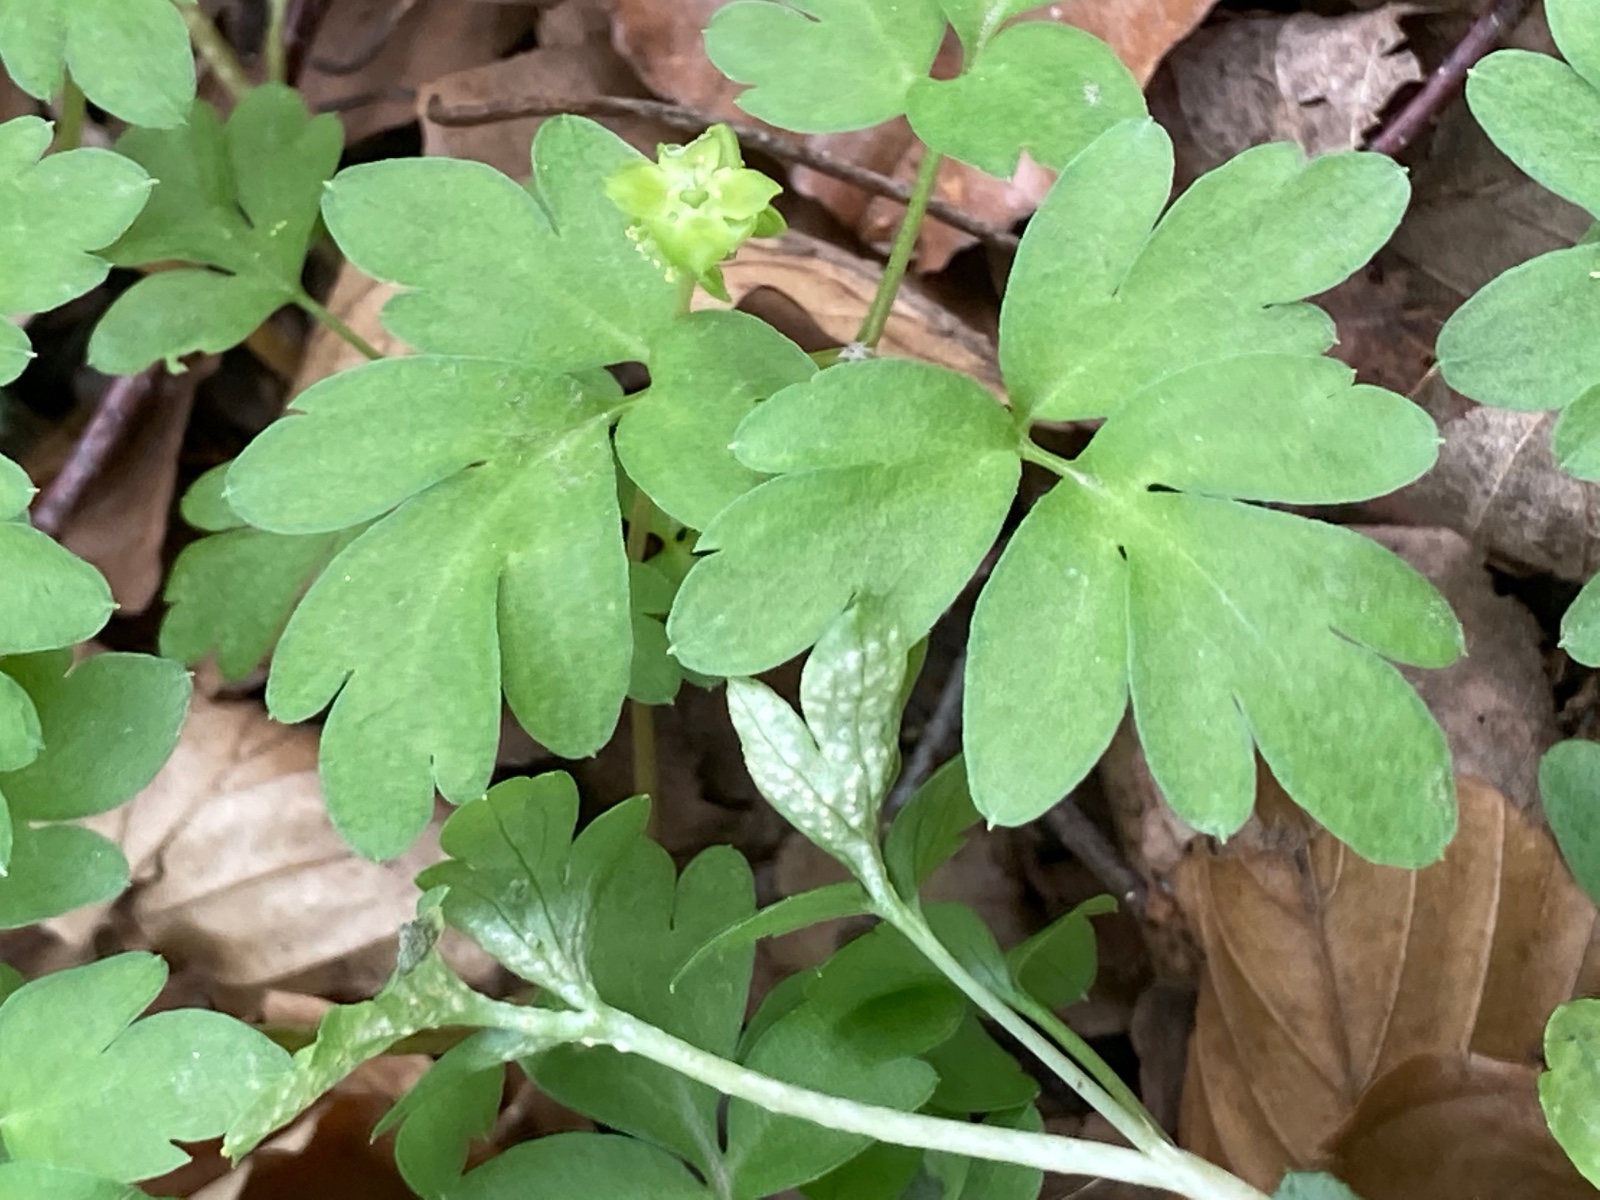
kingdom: Fungi
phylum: Basidiomycota
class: Pucciniomycetes
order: Pucciniales
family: Pucciniaceae
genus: Puccinia
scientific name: Puccinia albescens
